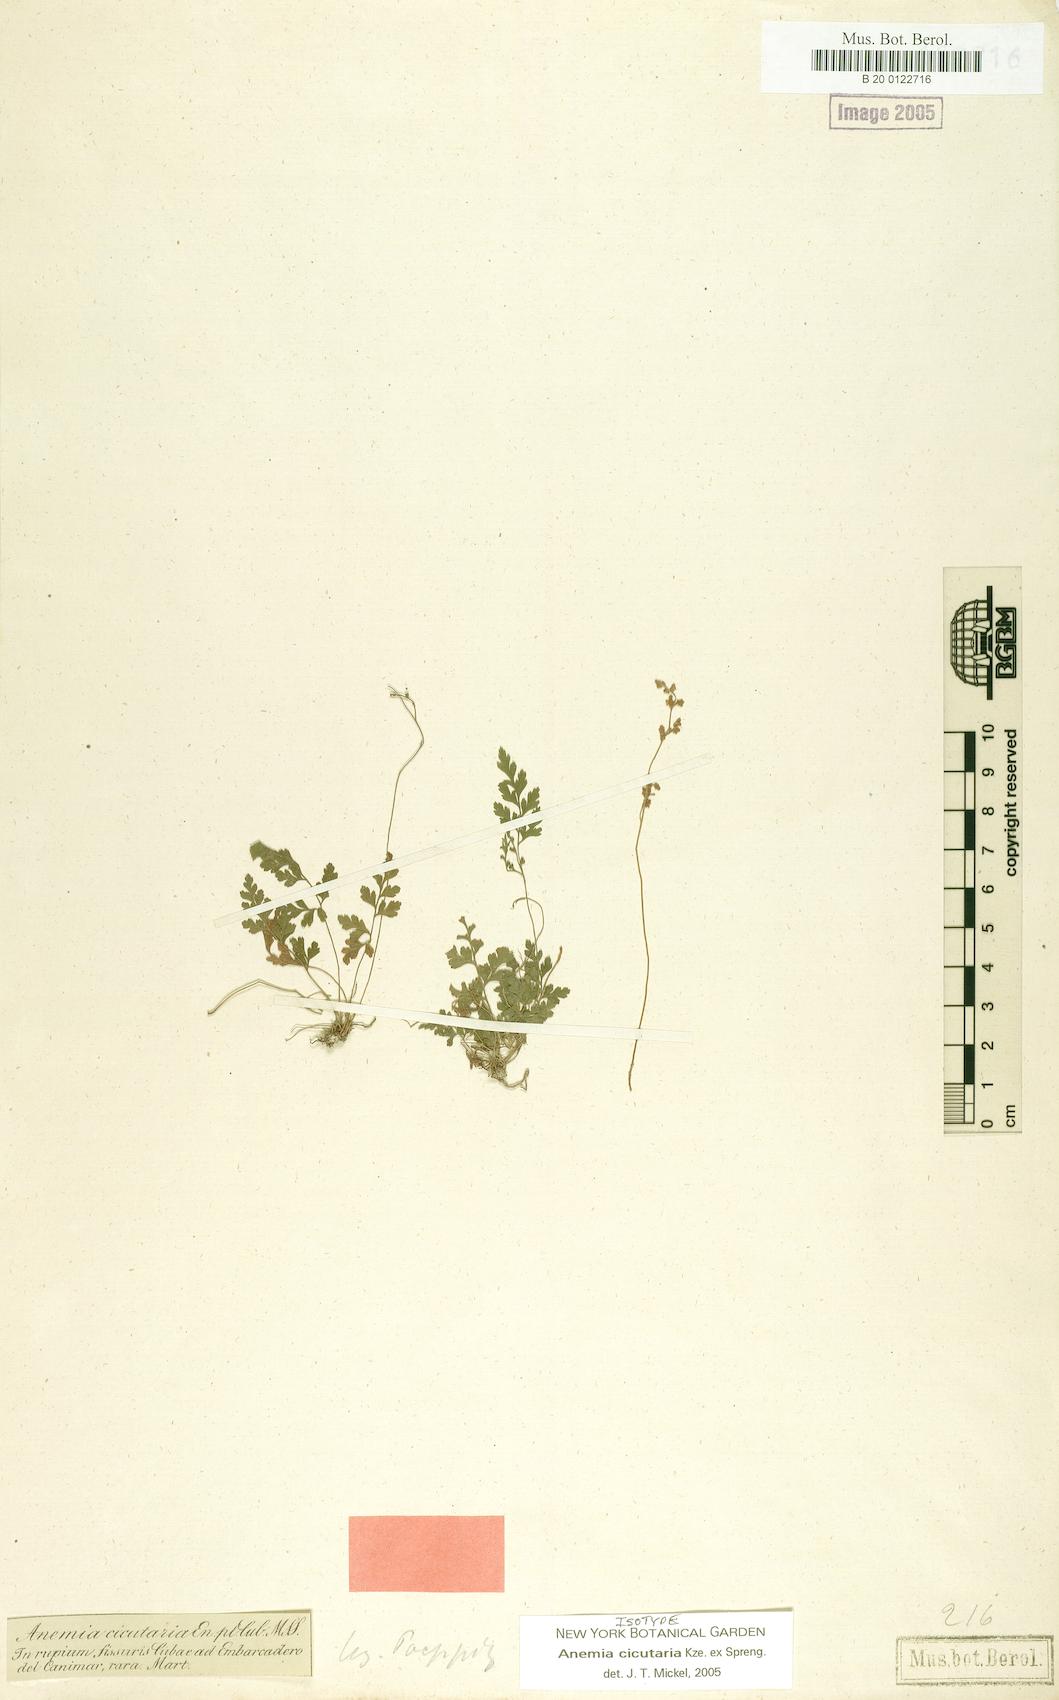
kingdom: Plantae
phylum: Tracheophyta
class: Polypodiopsida
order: Schizaeales
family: Anemiaceae
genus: Anemia
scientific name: Anemia cicutaria
